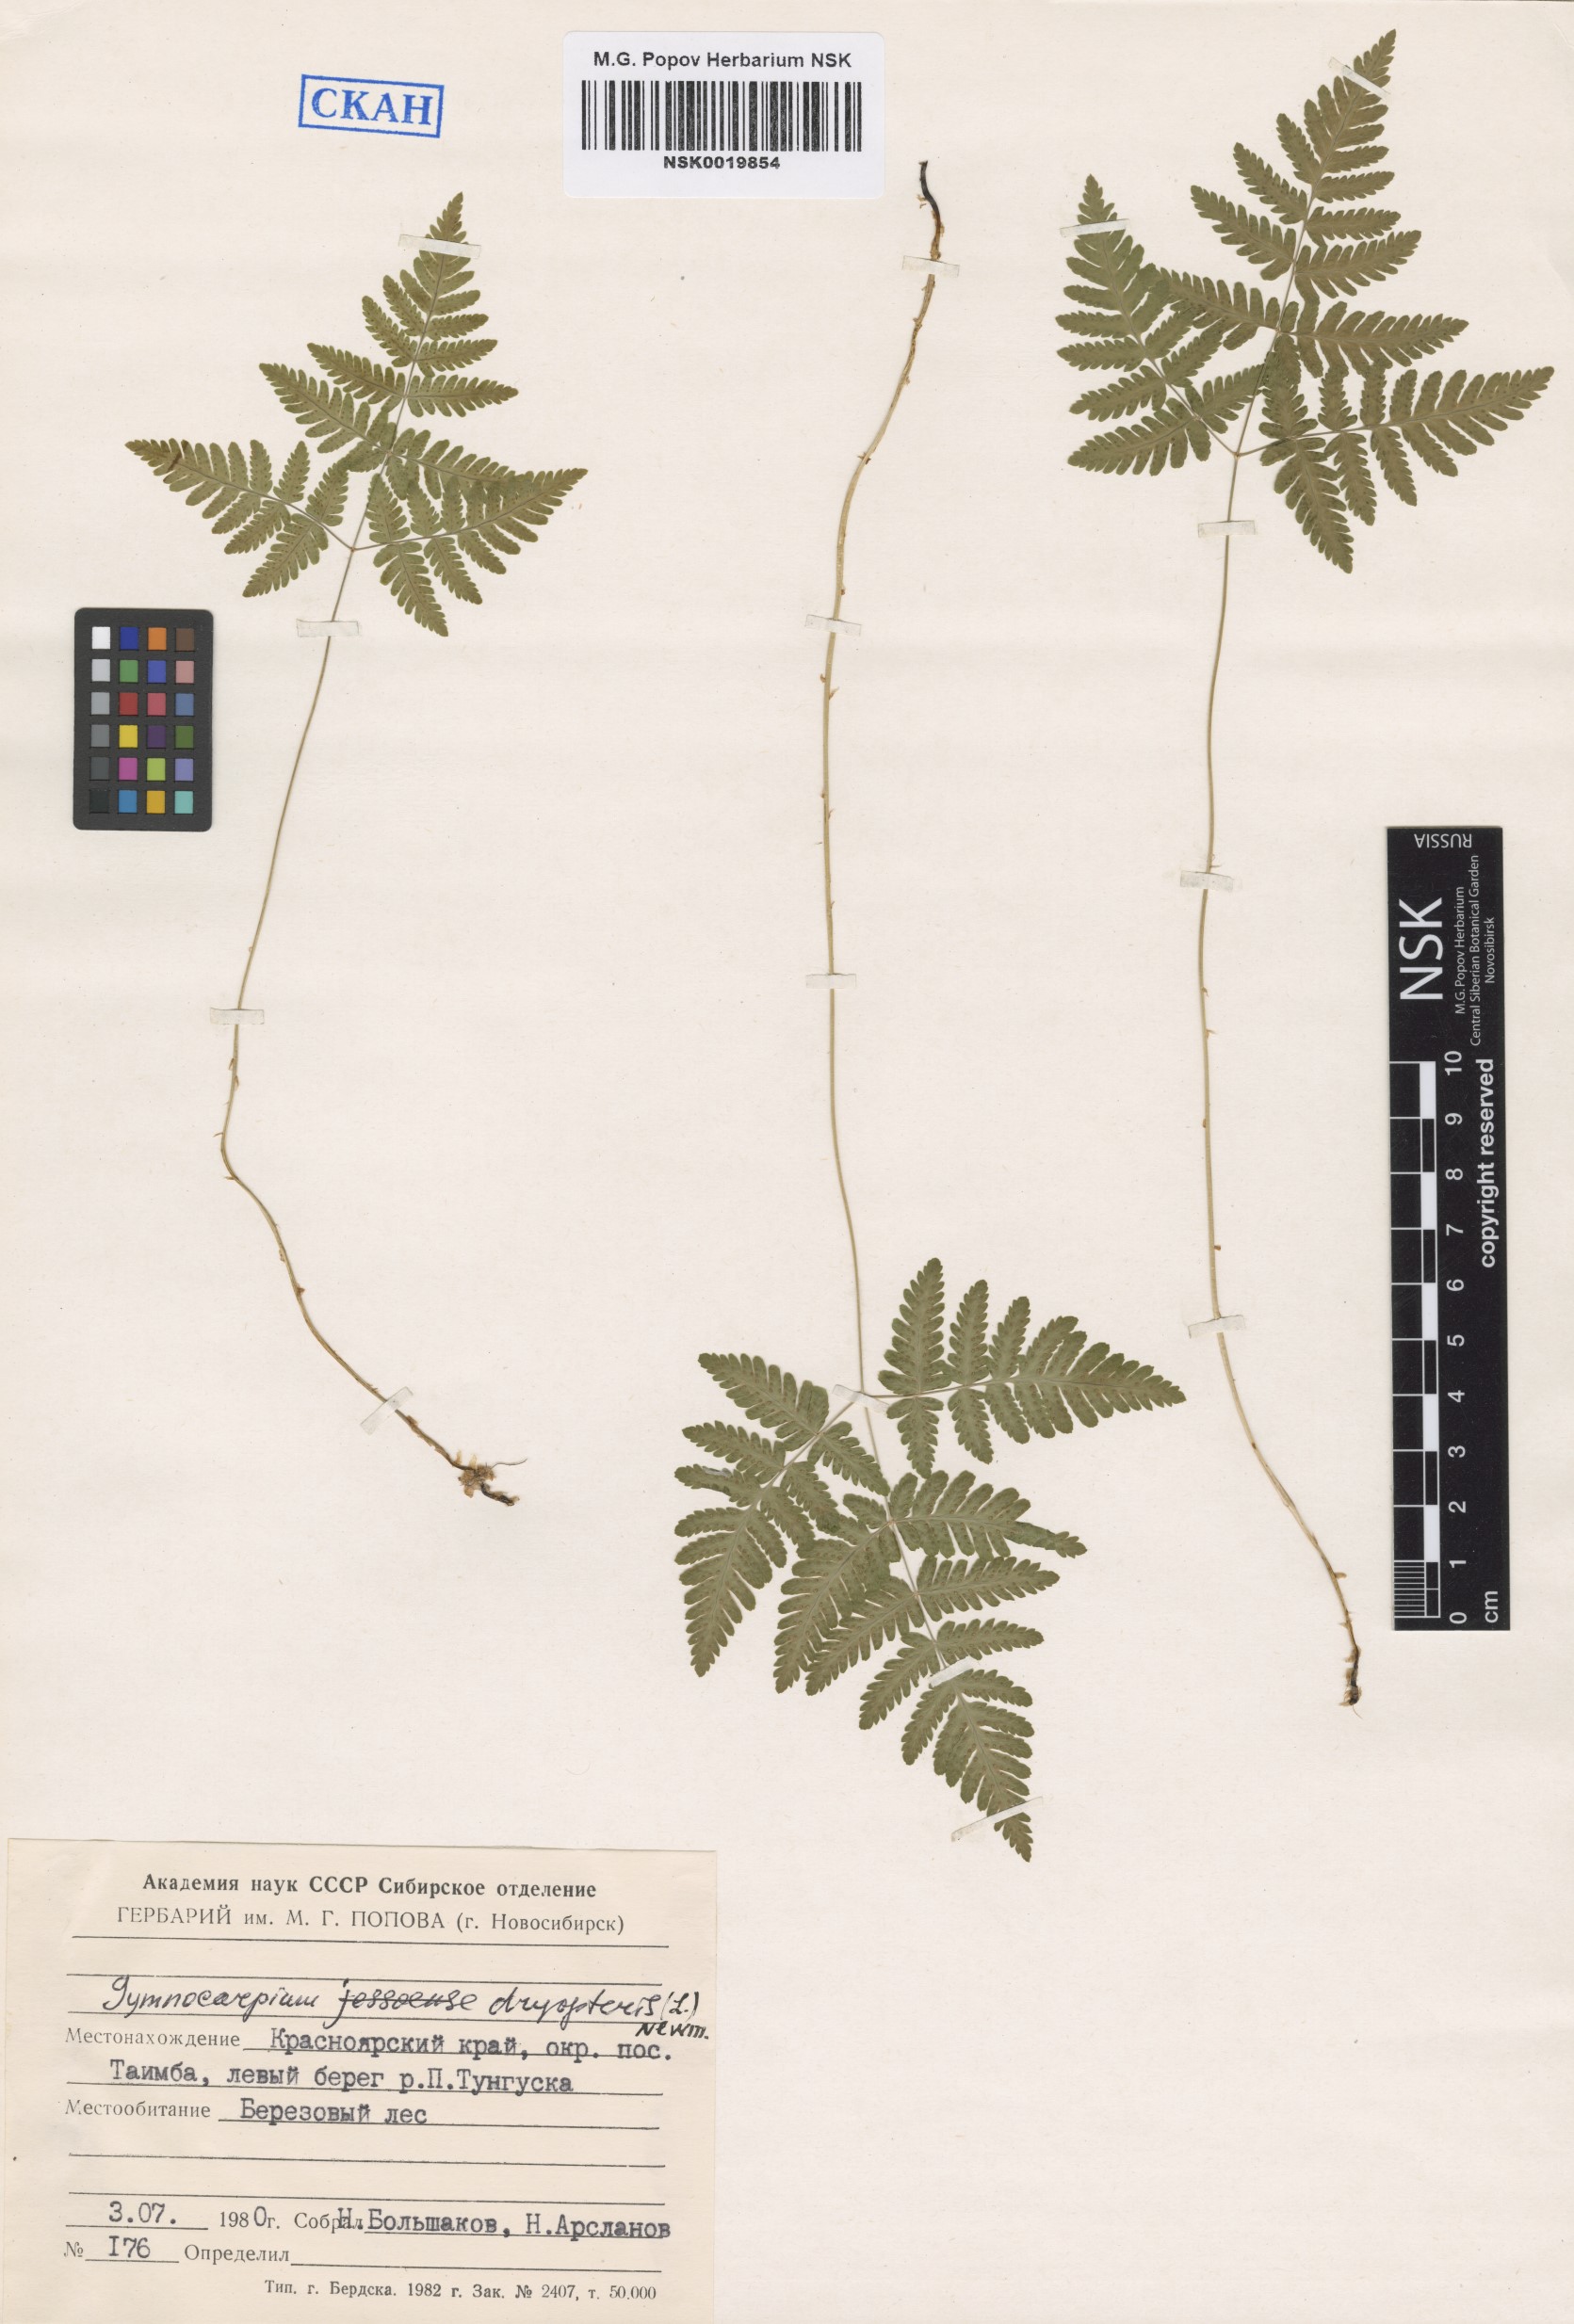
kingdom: Plantae
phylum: Tracheophyta
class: Polypodiopsida
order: Polypodiales
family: Cystopteridaceae
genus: Gymnocarpium
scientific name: Gymnocarpium dryopteris
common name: Oak fern
